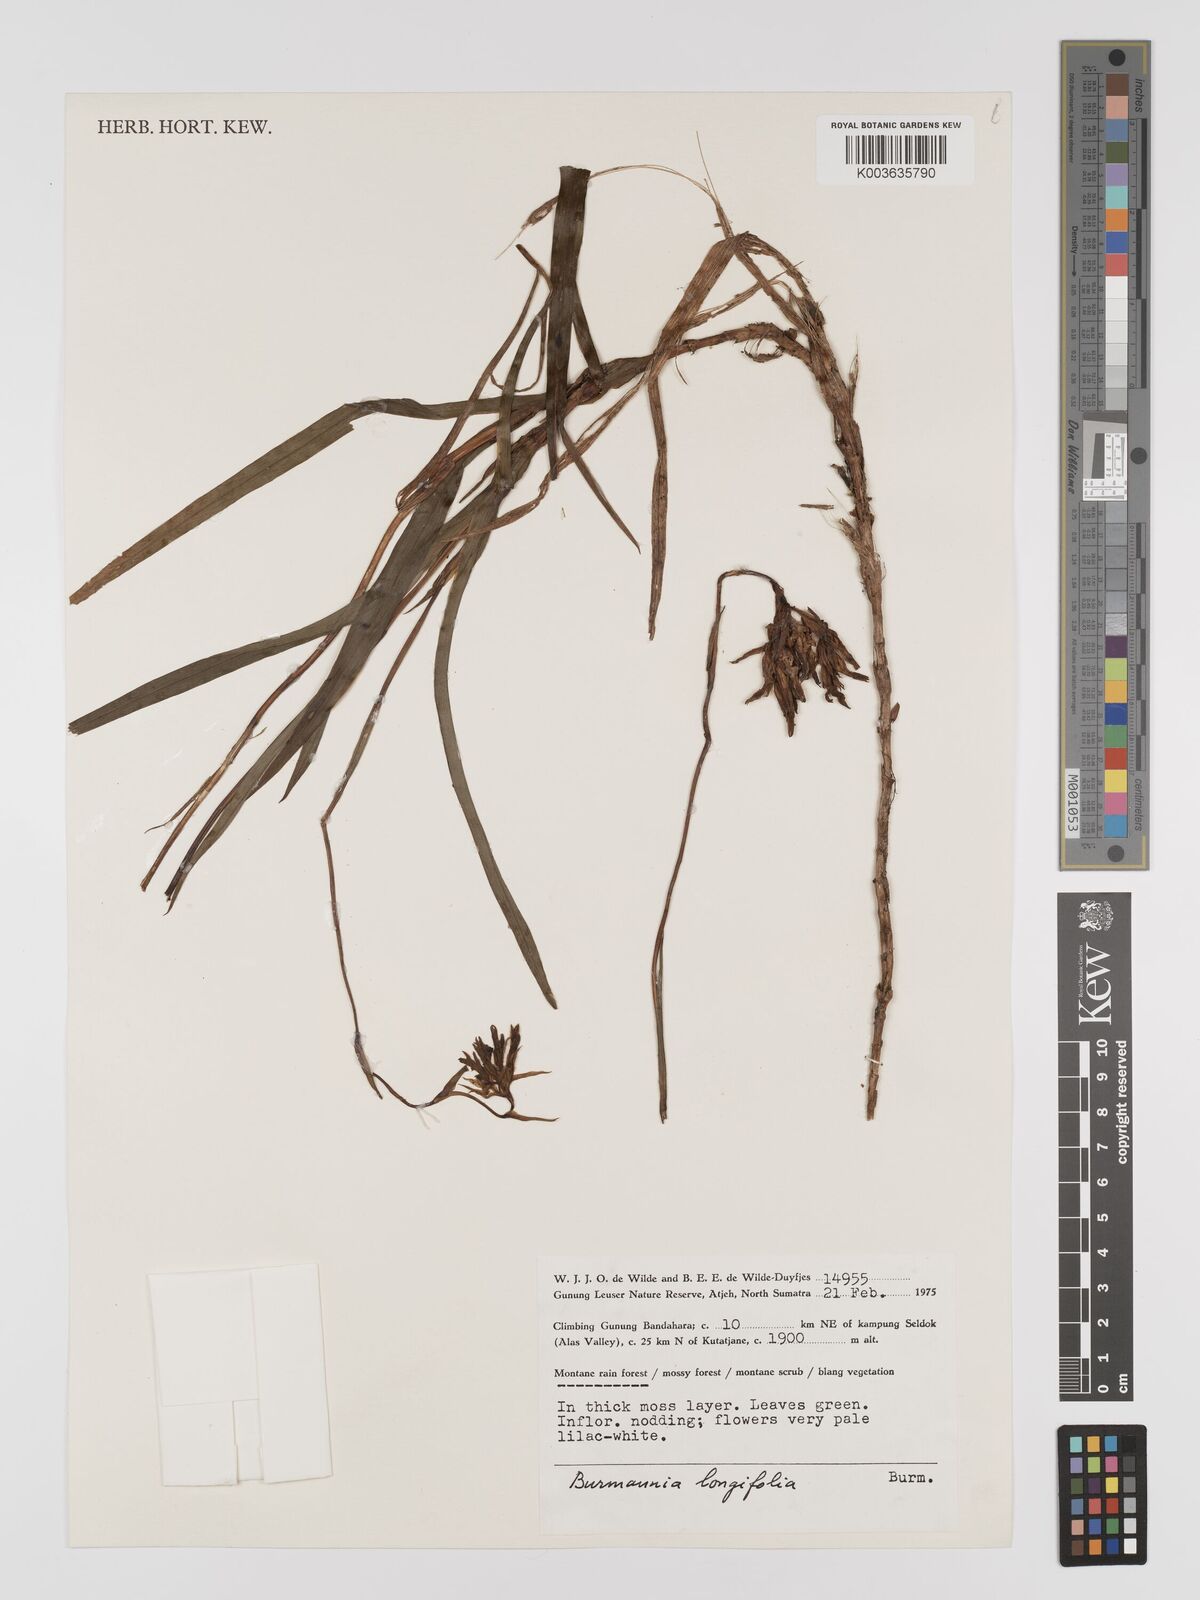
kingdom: Plantae
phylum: Tracheophyta
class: Liliopsida
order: Dioscoreales
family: Burmanniaceae
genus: Burmannia
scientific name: Burmannia longifolia
